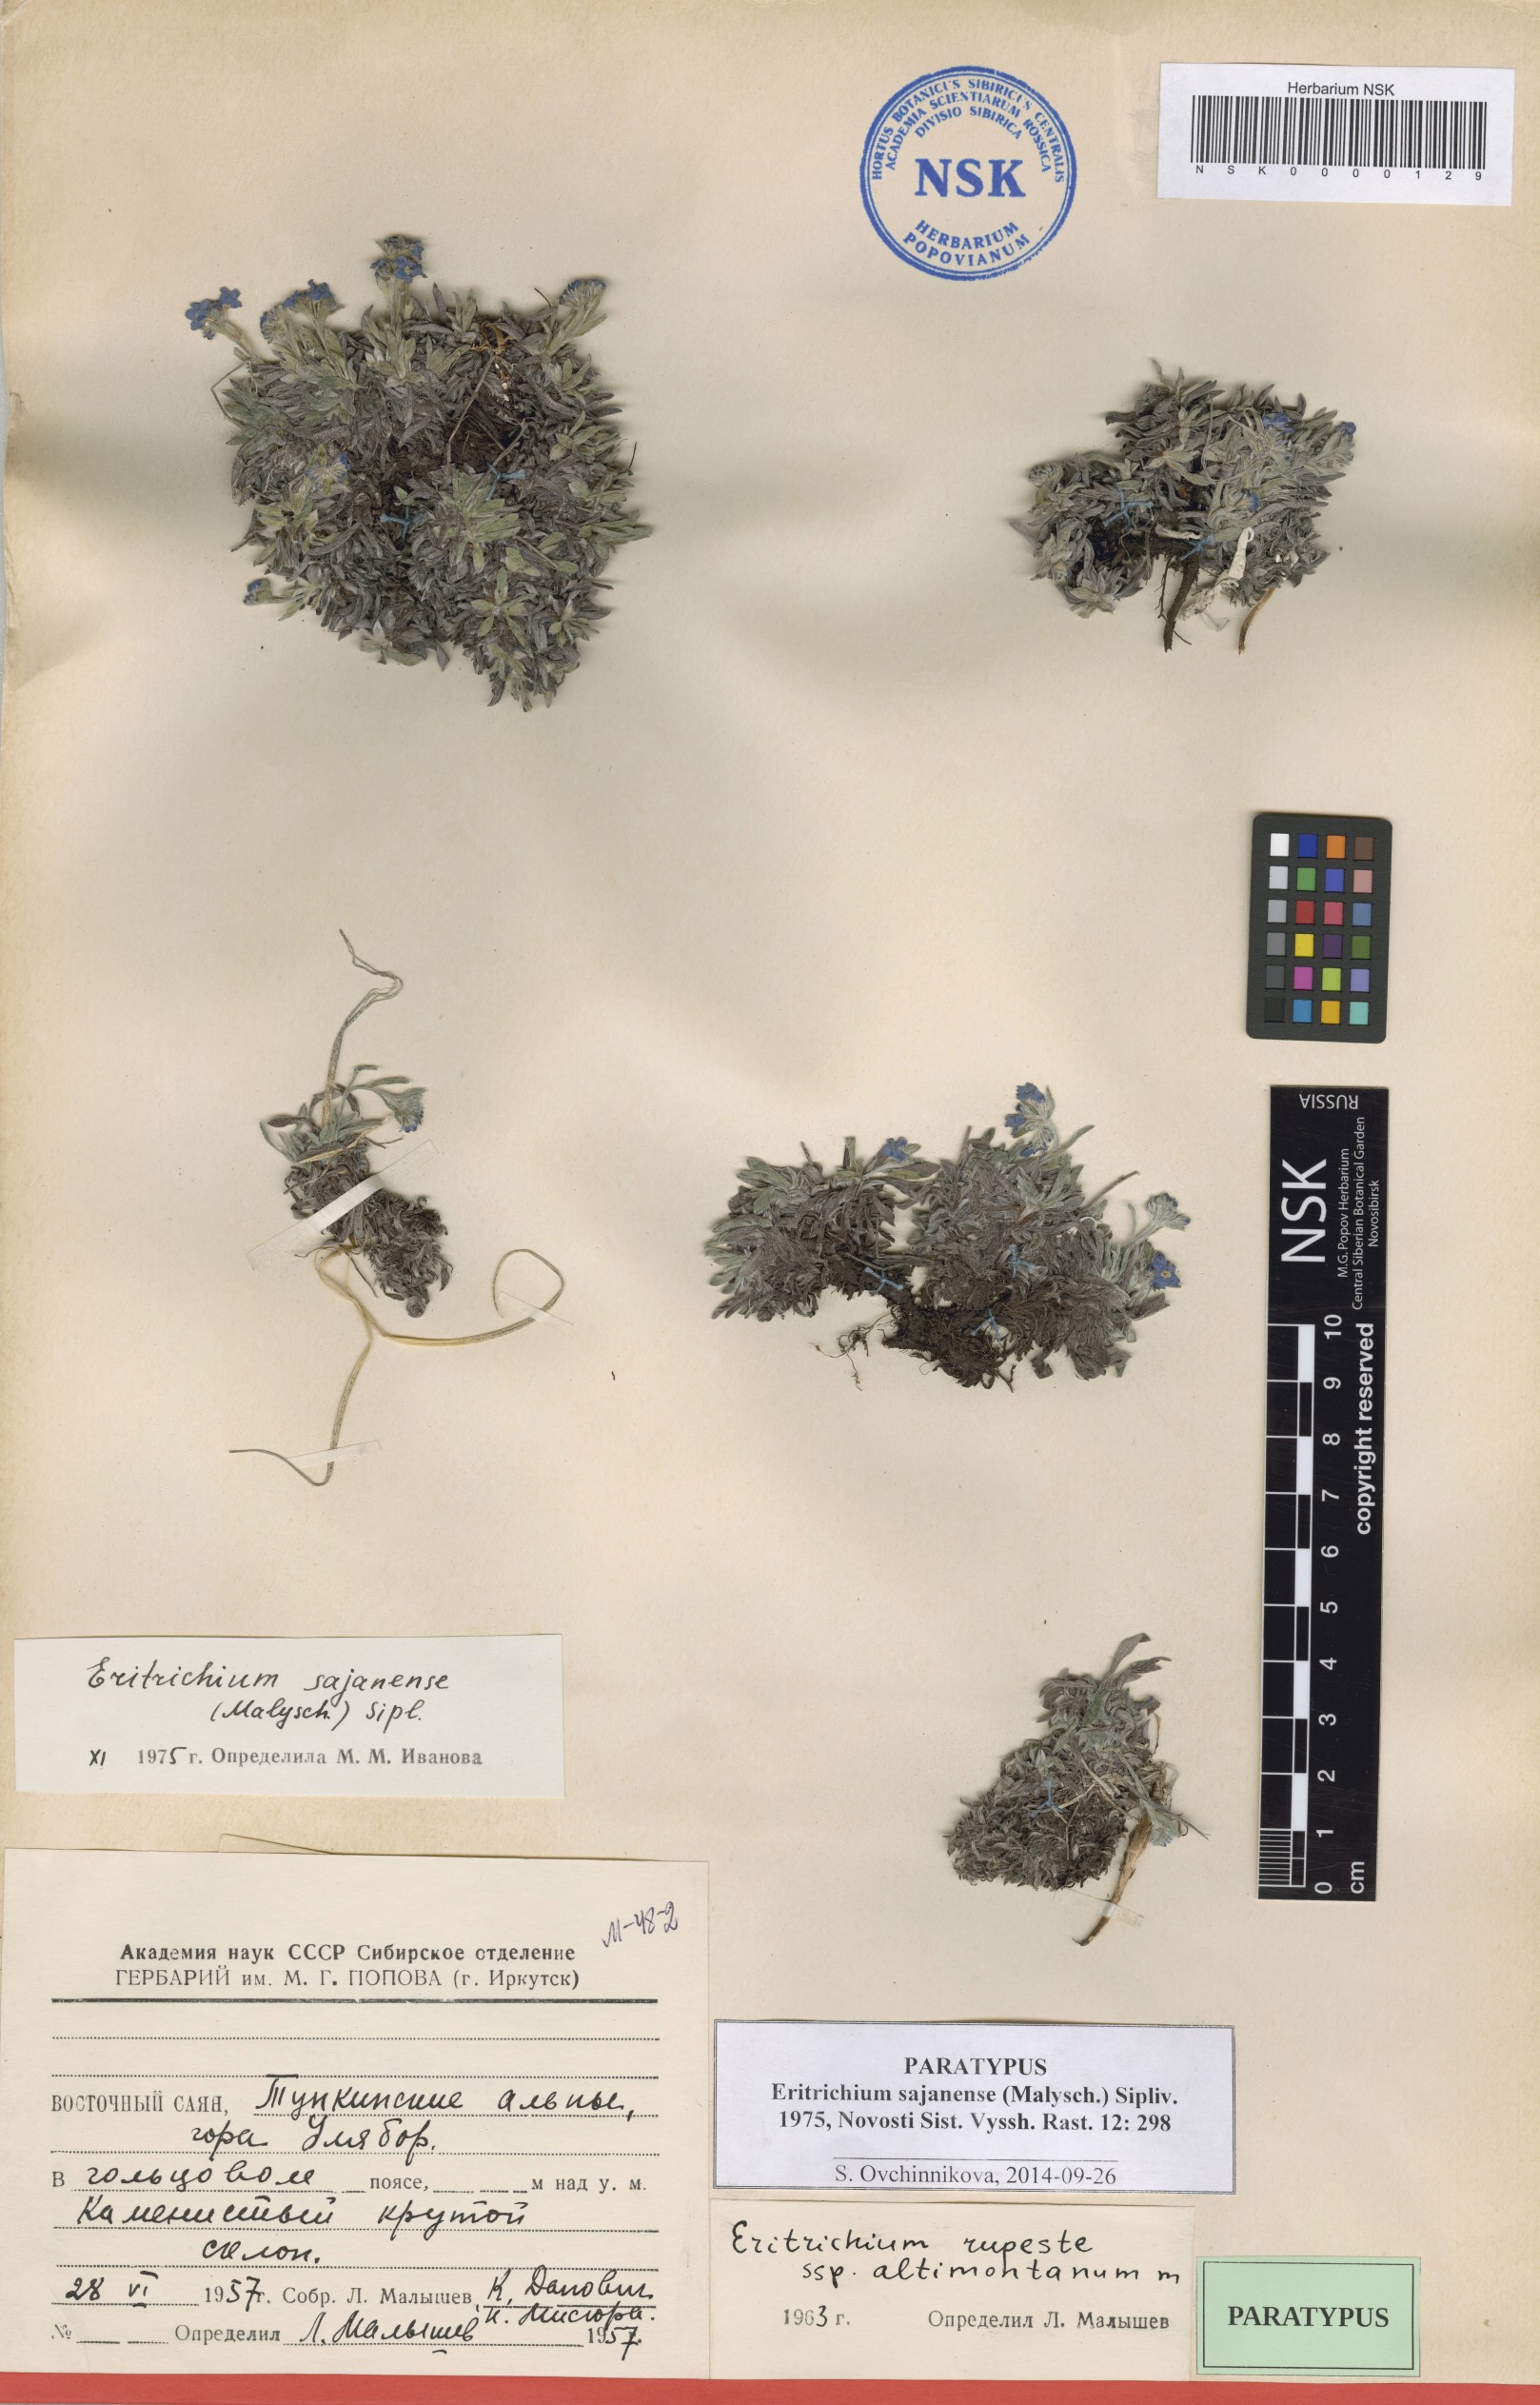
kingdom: Plantae
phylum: Tracheophyta
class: Magnoliopsida
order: Boraginales
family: Boraginaceae
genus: Eritrichium
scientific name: Eritrichium sajanense
